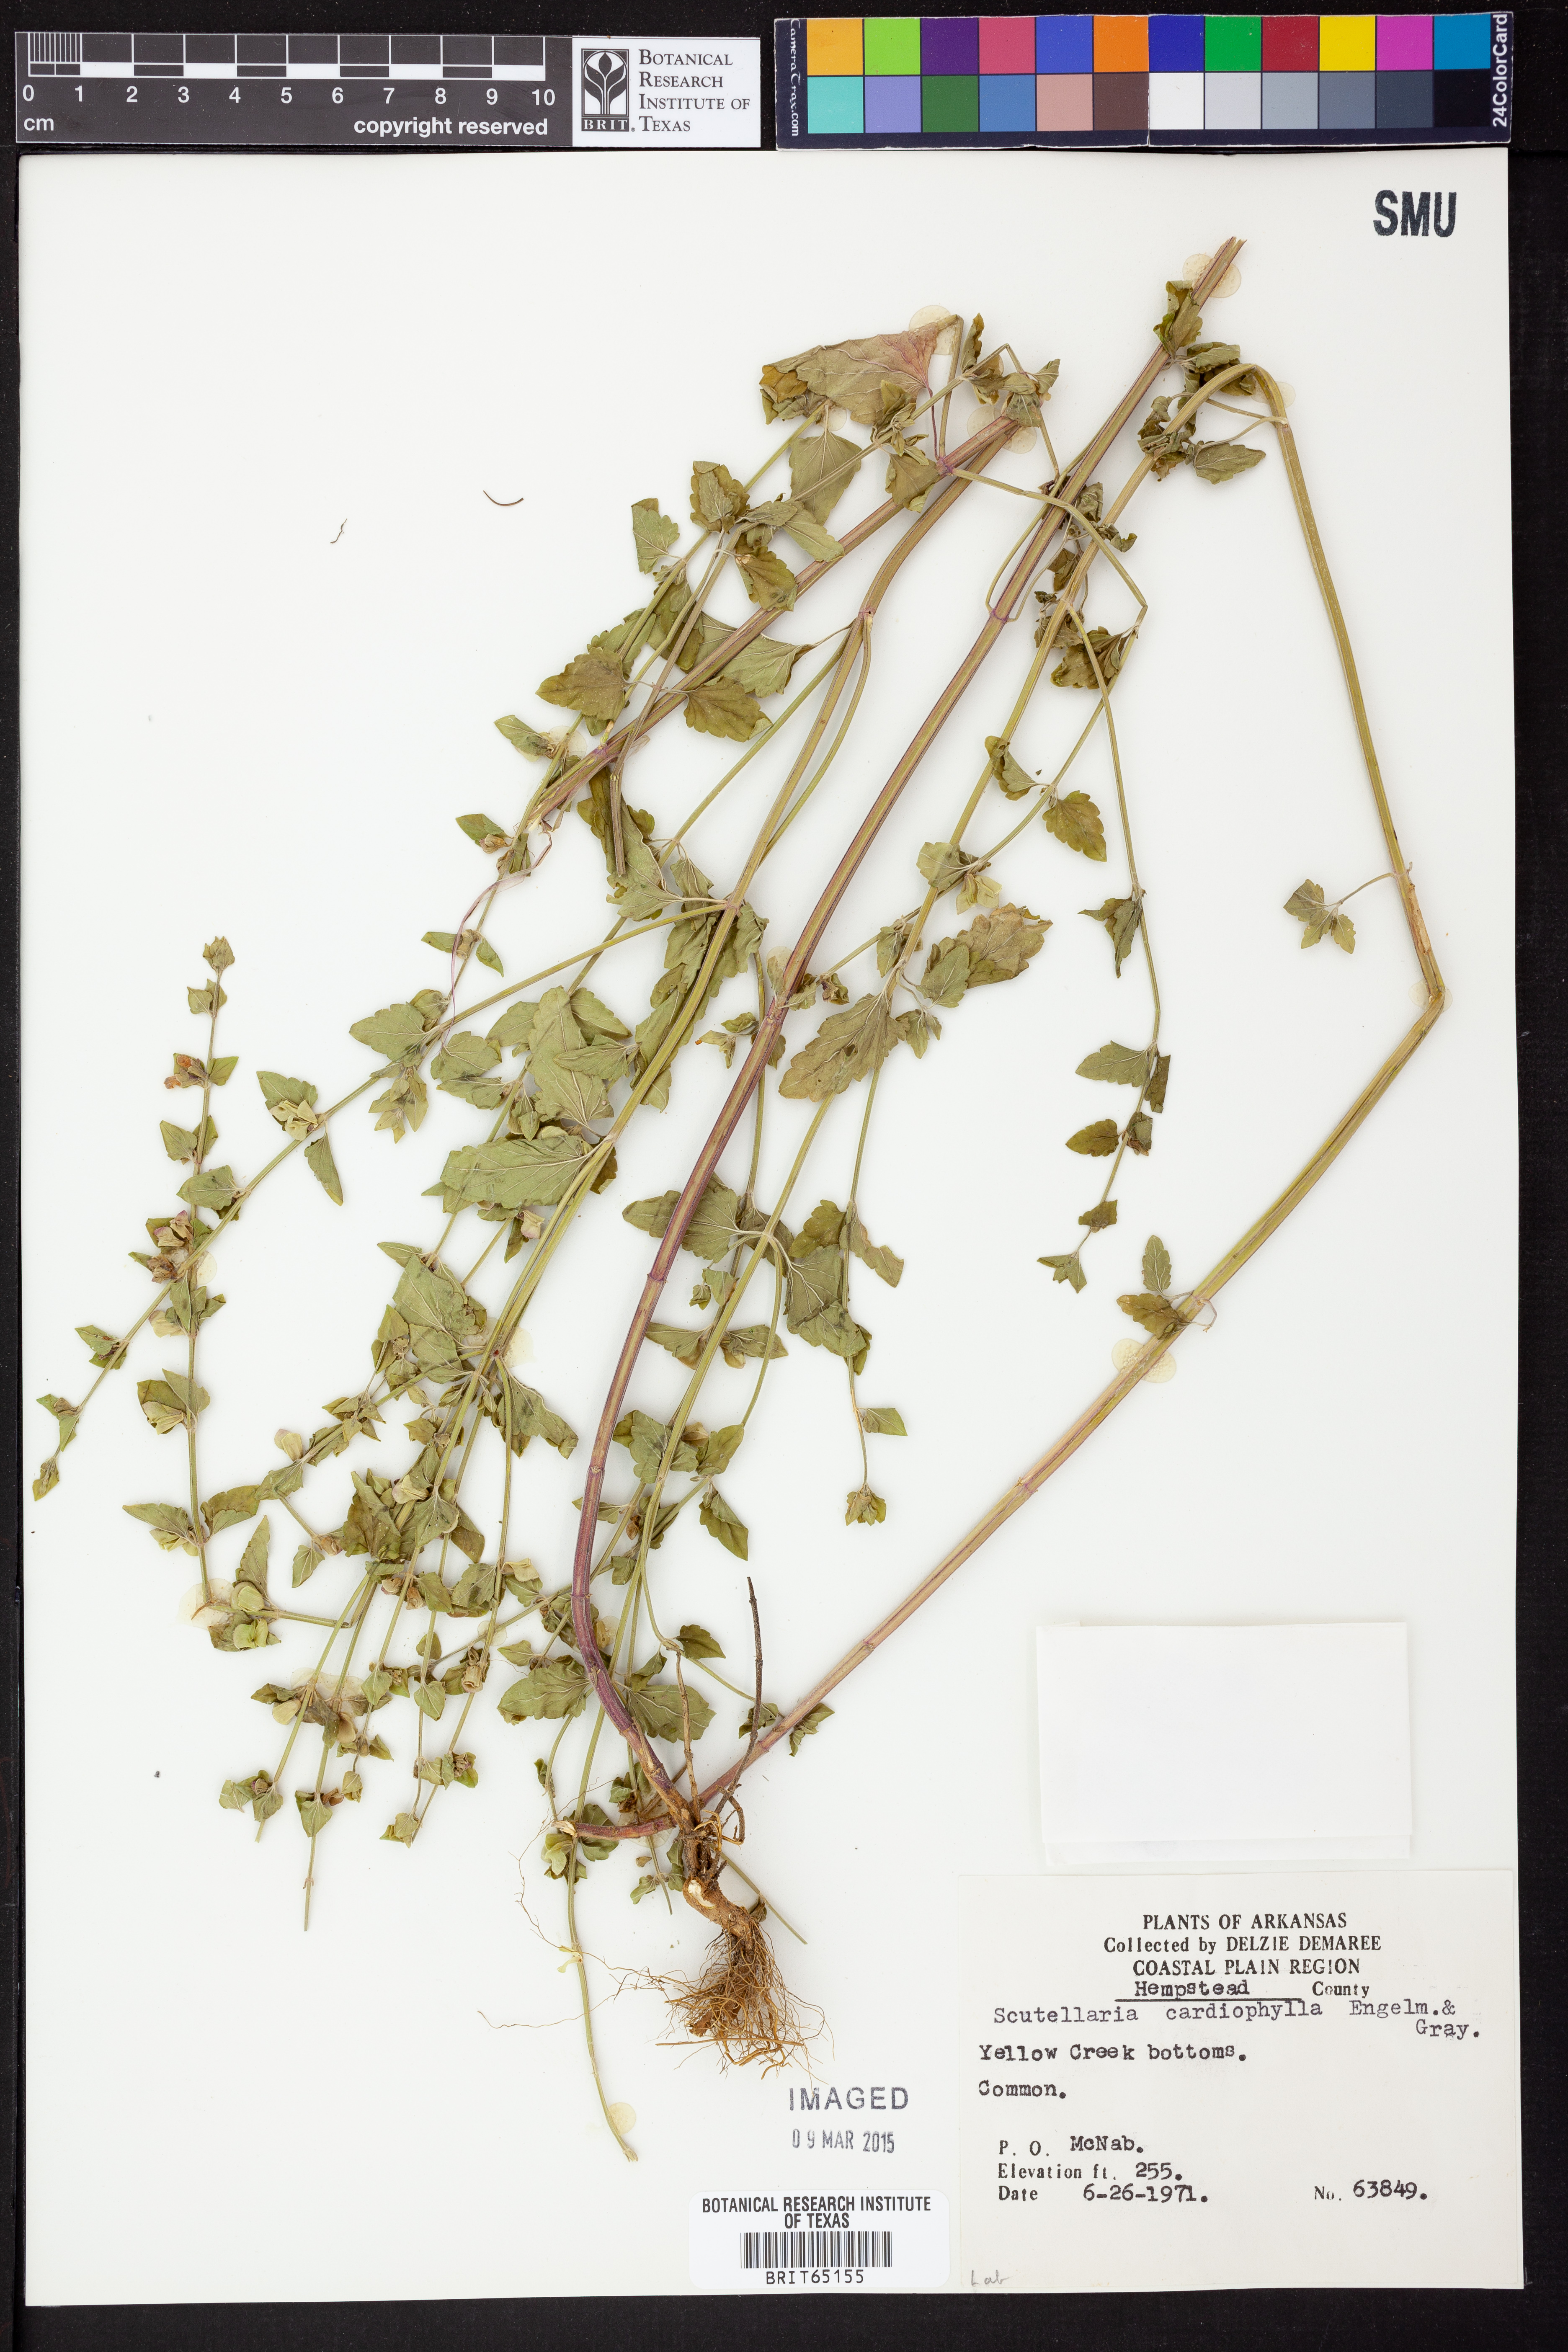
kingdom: Plantae
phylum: Tracheophyta
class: Magnoliopsida
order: Lamiales
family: Lamiaceae
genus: Scutellaria
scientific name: Scutellaria
